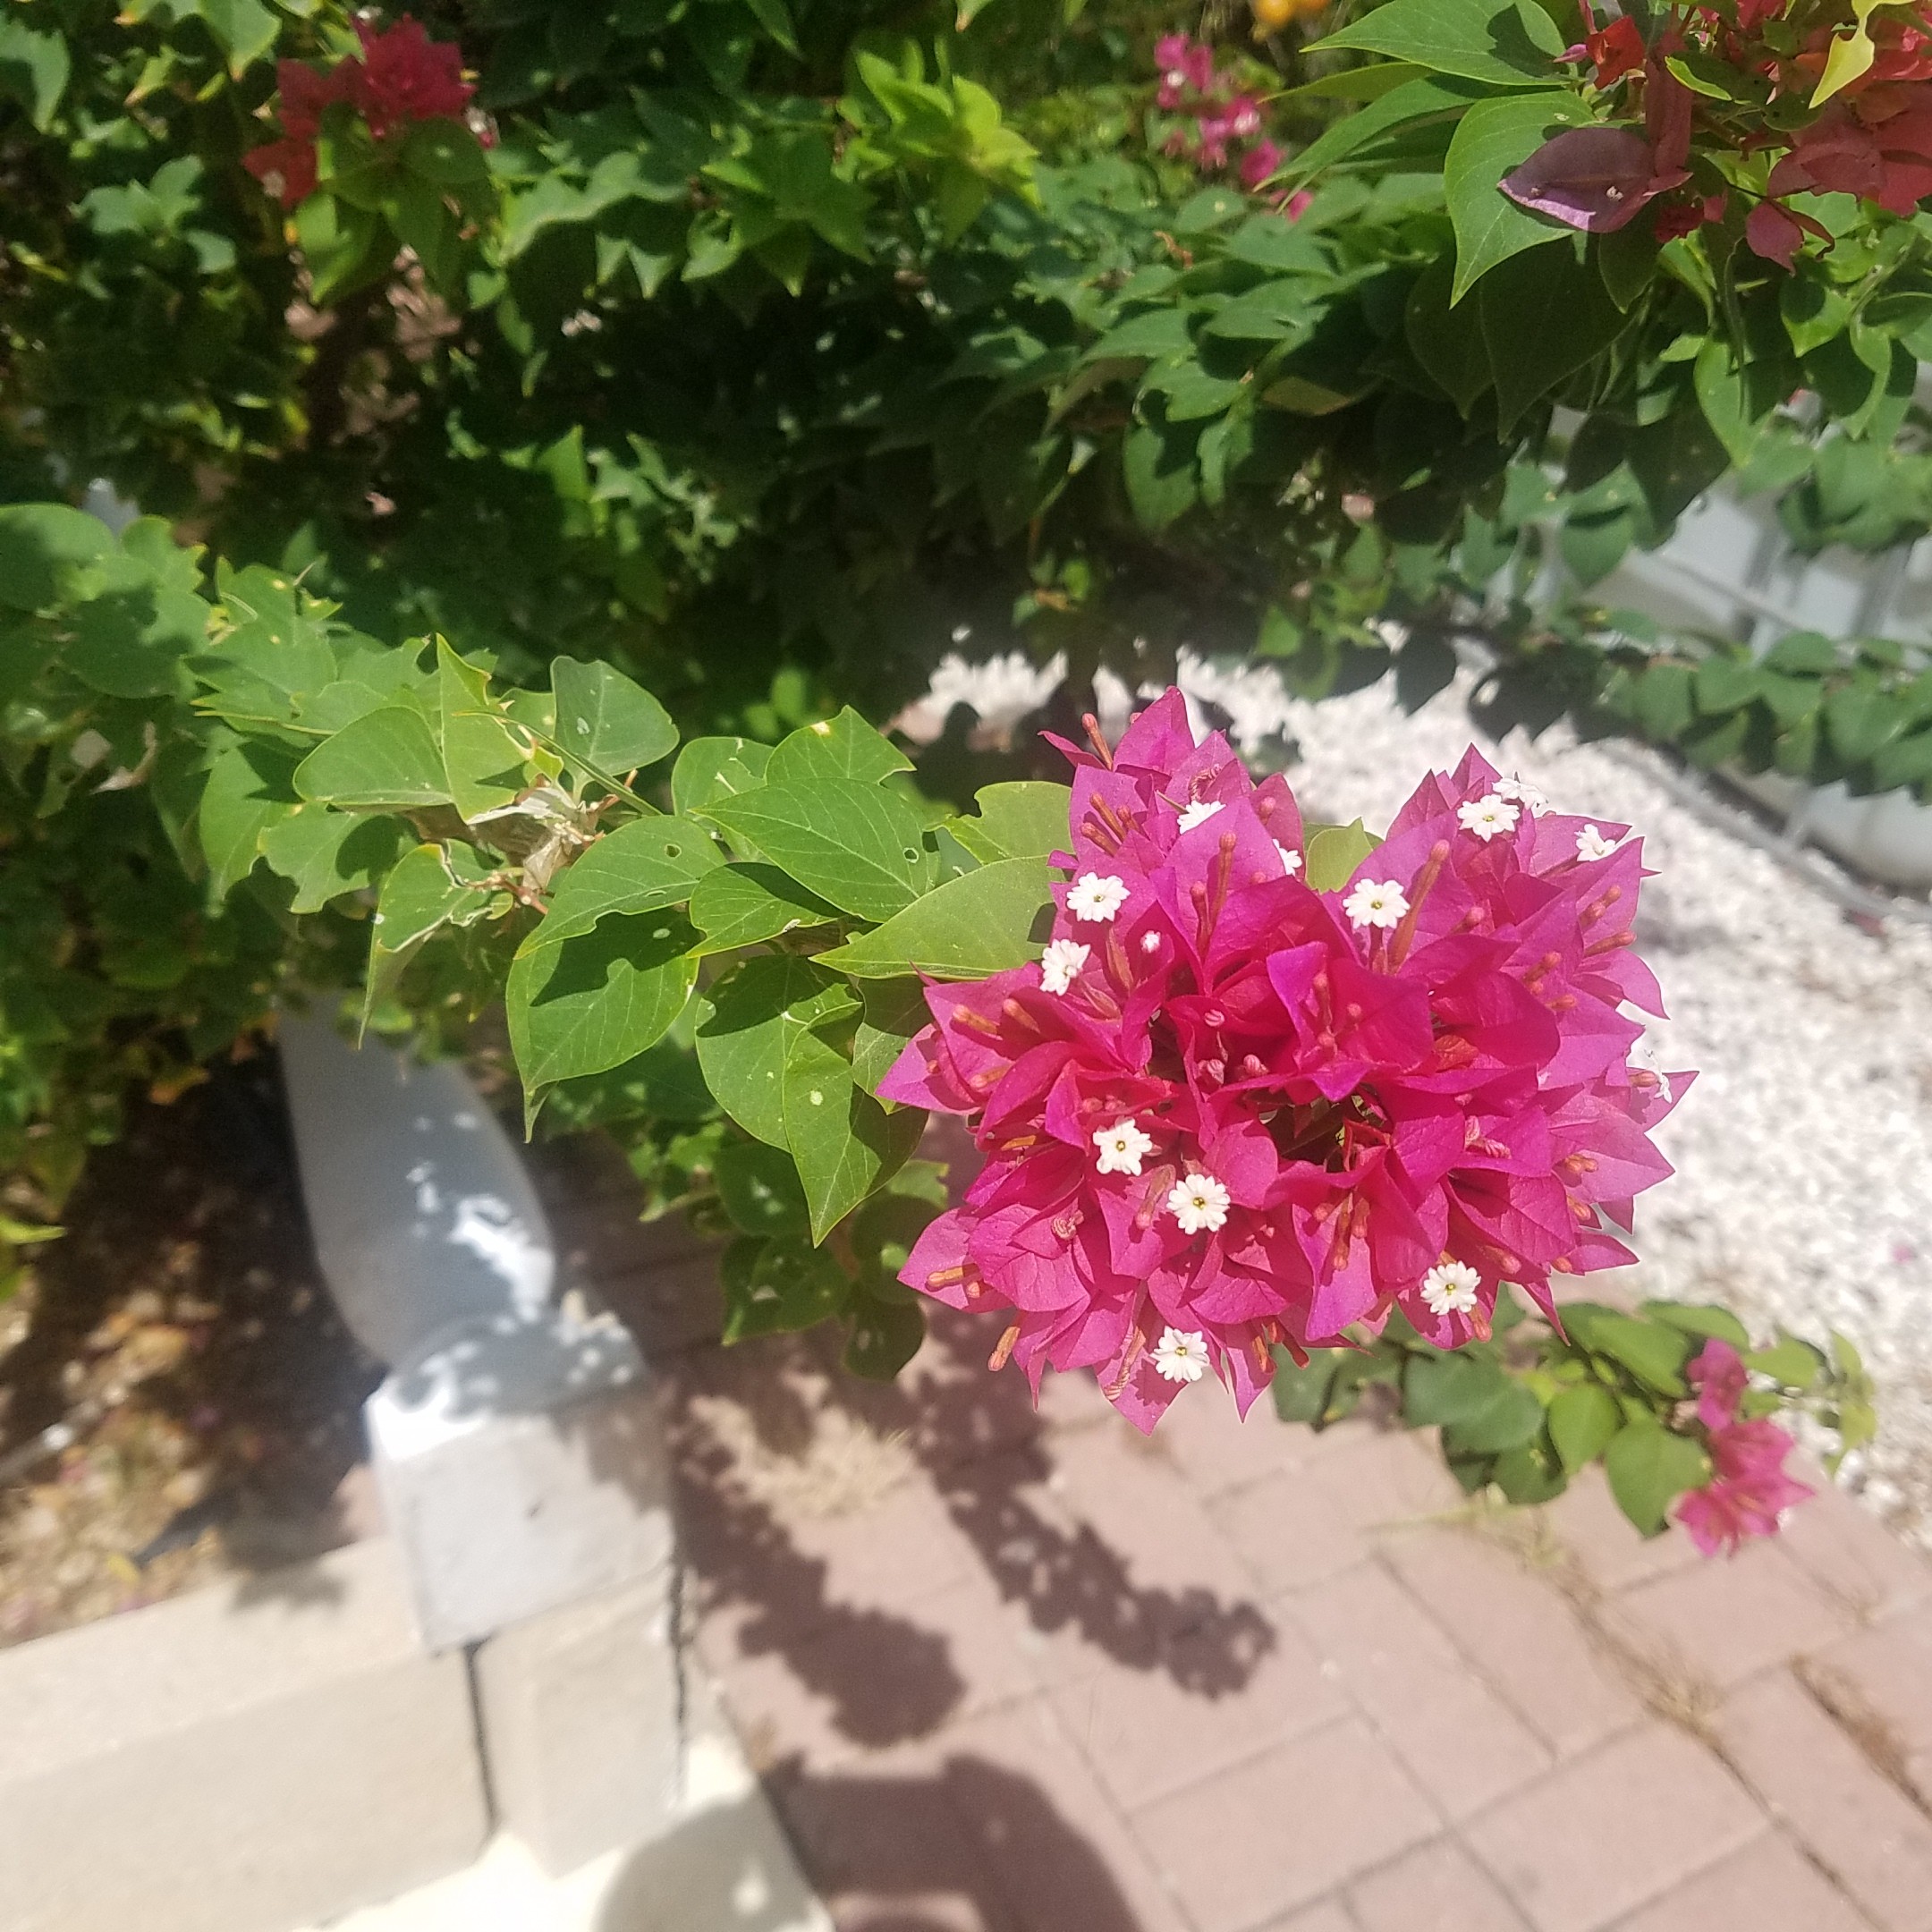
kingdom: Plantae
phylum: Tracheophyta
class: Magnoliopsida
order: Caryophyllales
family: Nyctaginaceae
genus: Bougainvillea
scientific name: Bougainvillea peruviana
